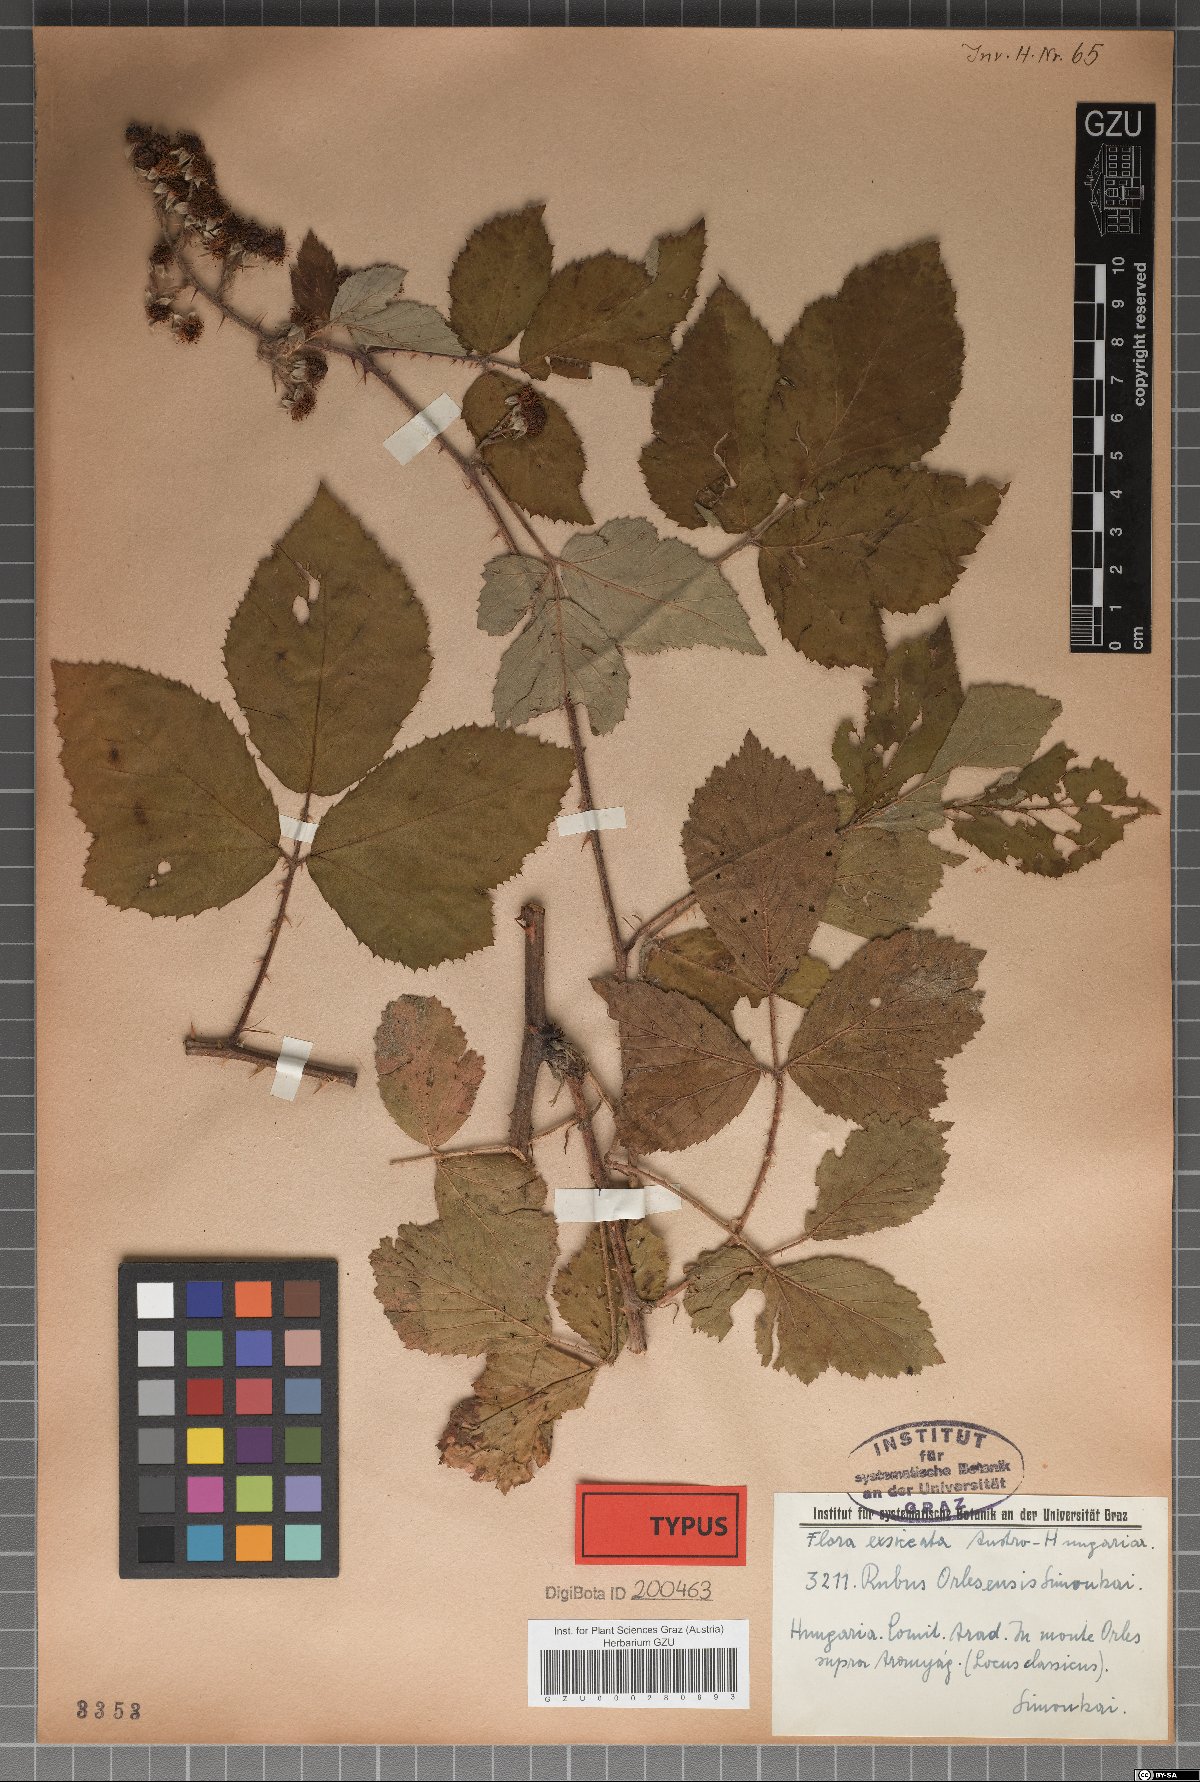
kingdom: Plantae
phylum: Tracheophyta
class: Magnoliopsida
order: Rosales
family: Rosaceae
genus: Rubus
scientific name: Rubus radula
